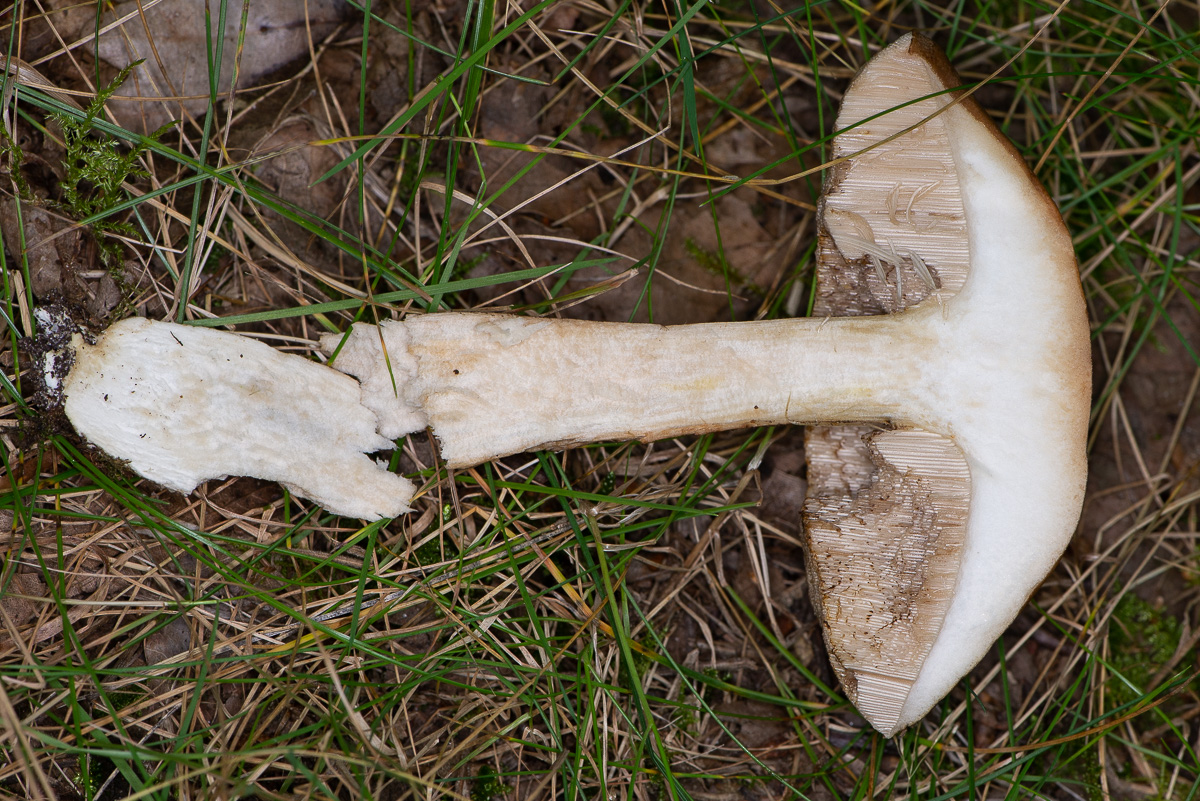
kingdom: Fungi
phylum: Basidiomycota
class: Agaricomycetes
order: Boletales
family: Boletaceae
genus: Leccinum
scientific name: Leccinum scabrum
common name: brun skælrørhat
